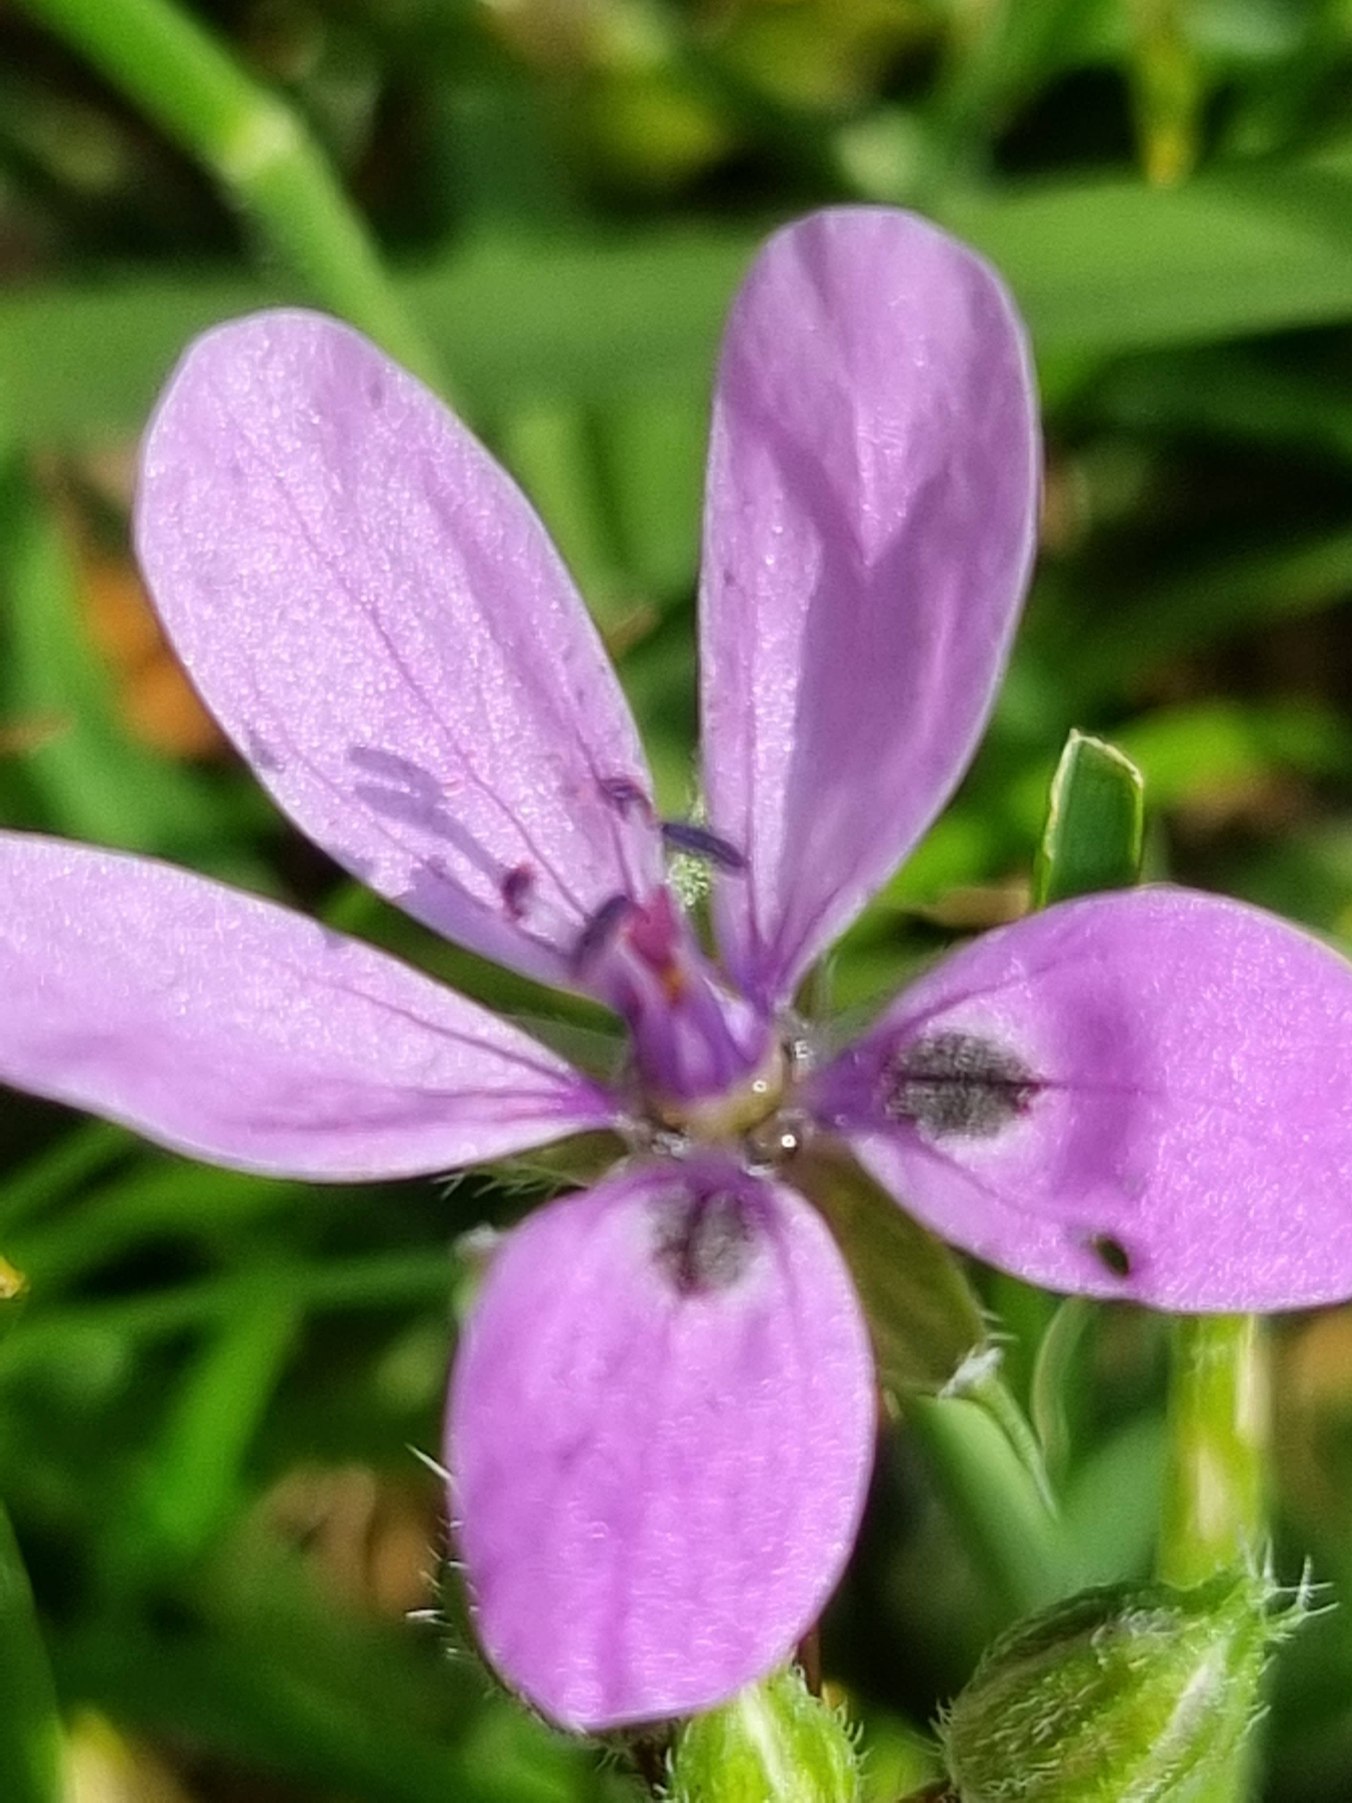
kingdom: Plantae
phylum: Tracheophyta
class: Magnoliopsida
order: Geraniales
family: Geraniaceae
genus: Erodium
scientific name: Erodium cicutarium
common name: Hejrenæb
